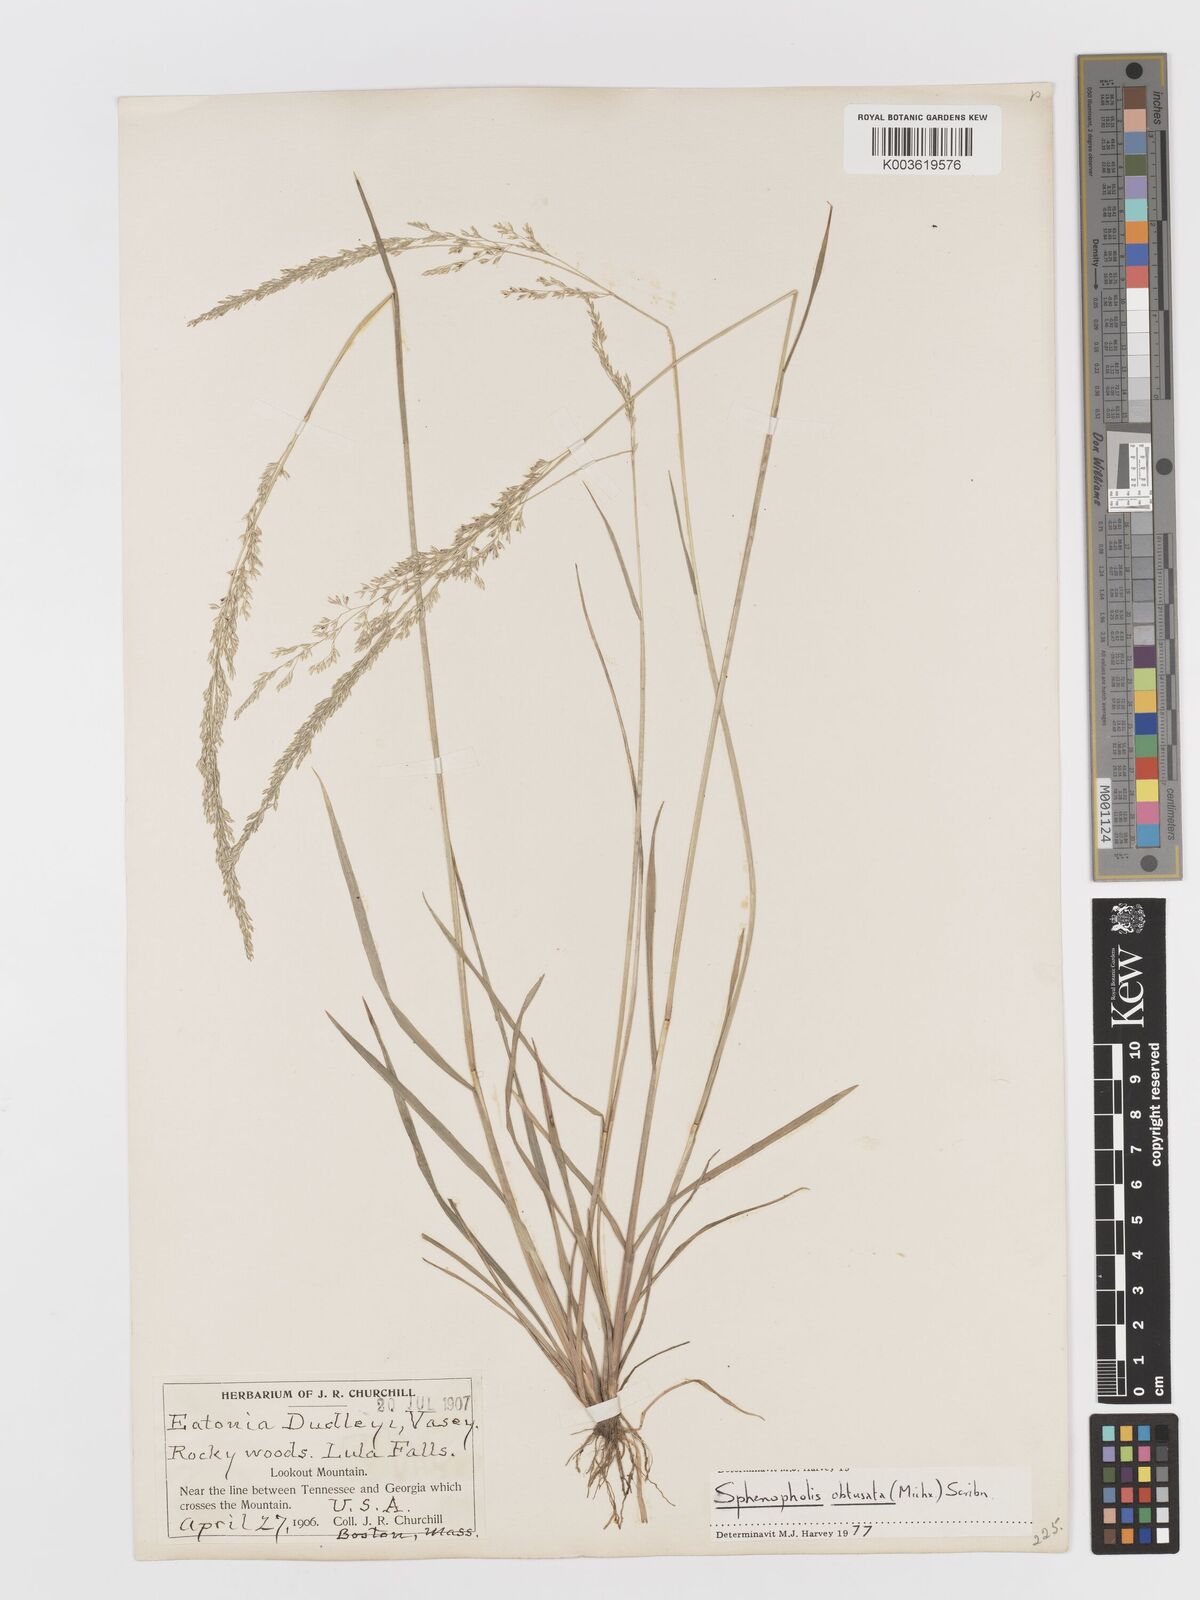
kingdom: Plantae
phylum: Tracheophyta
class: Liliopsida
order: Poales
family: Poaceae
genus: Sphenopholis
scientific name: Sphenopholis obtusata
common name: Prairie grass
